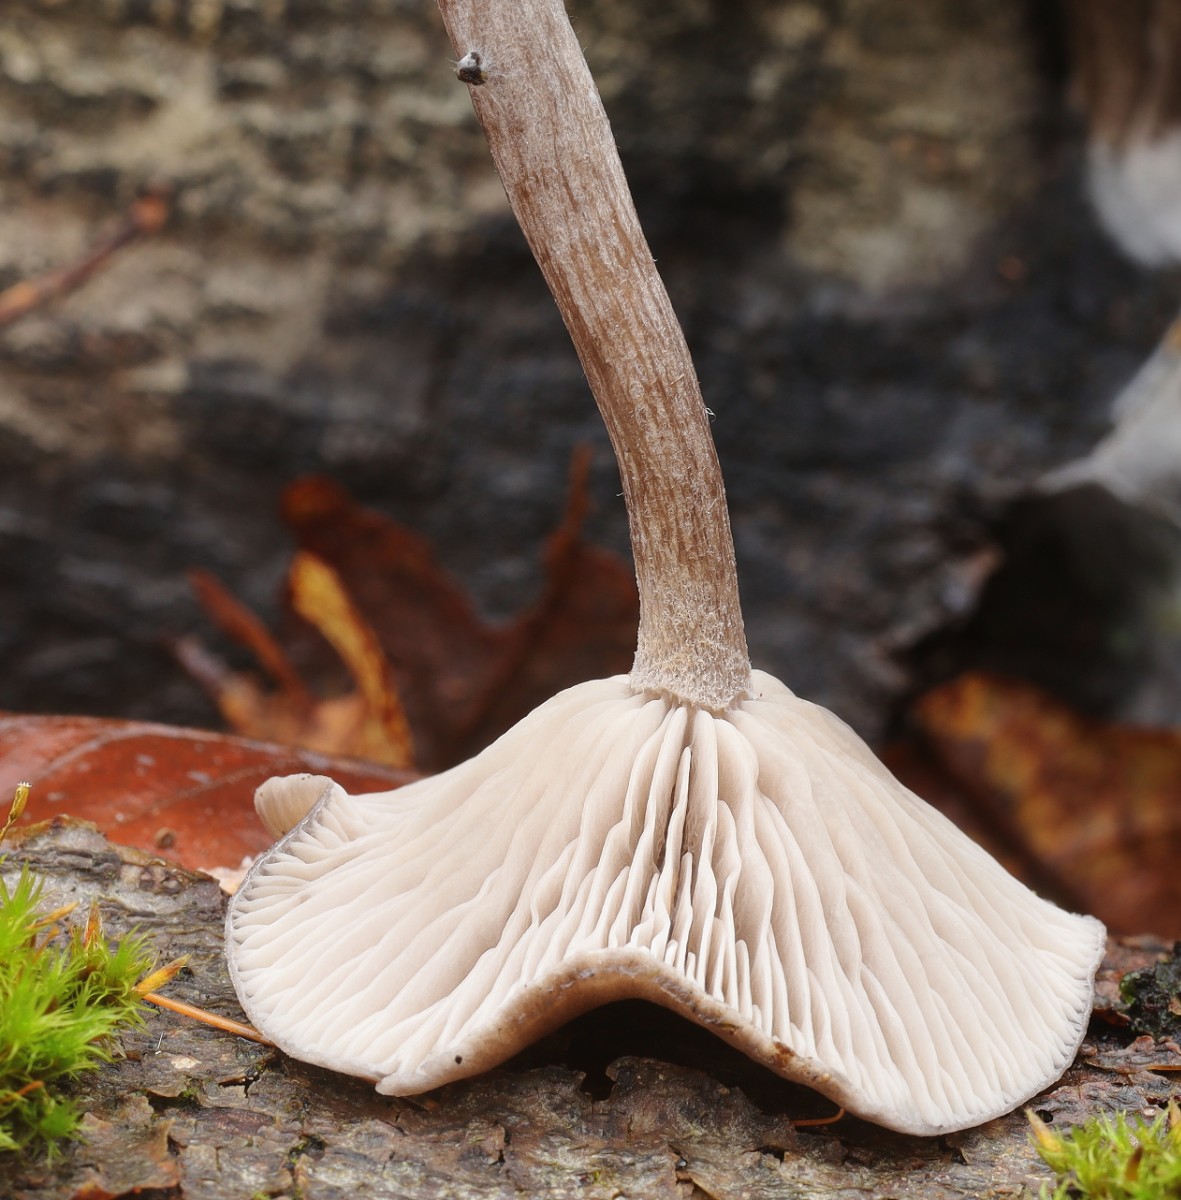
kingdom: Fungi
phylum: Basidiomycota
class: Agaricomycetes
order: Agaricales
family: Pseudoclitocybaceae
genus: Pseudoclitocybe
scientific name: Pseudoclitocybe cyathiformis
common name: almindelig bægertragthat
